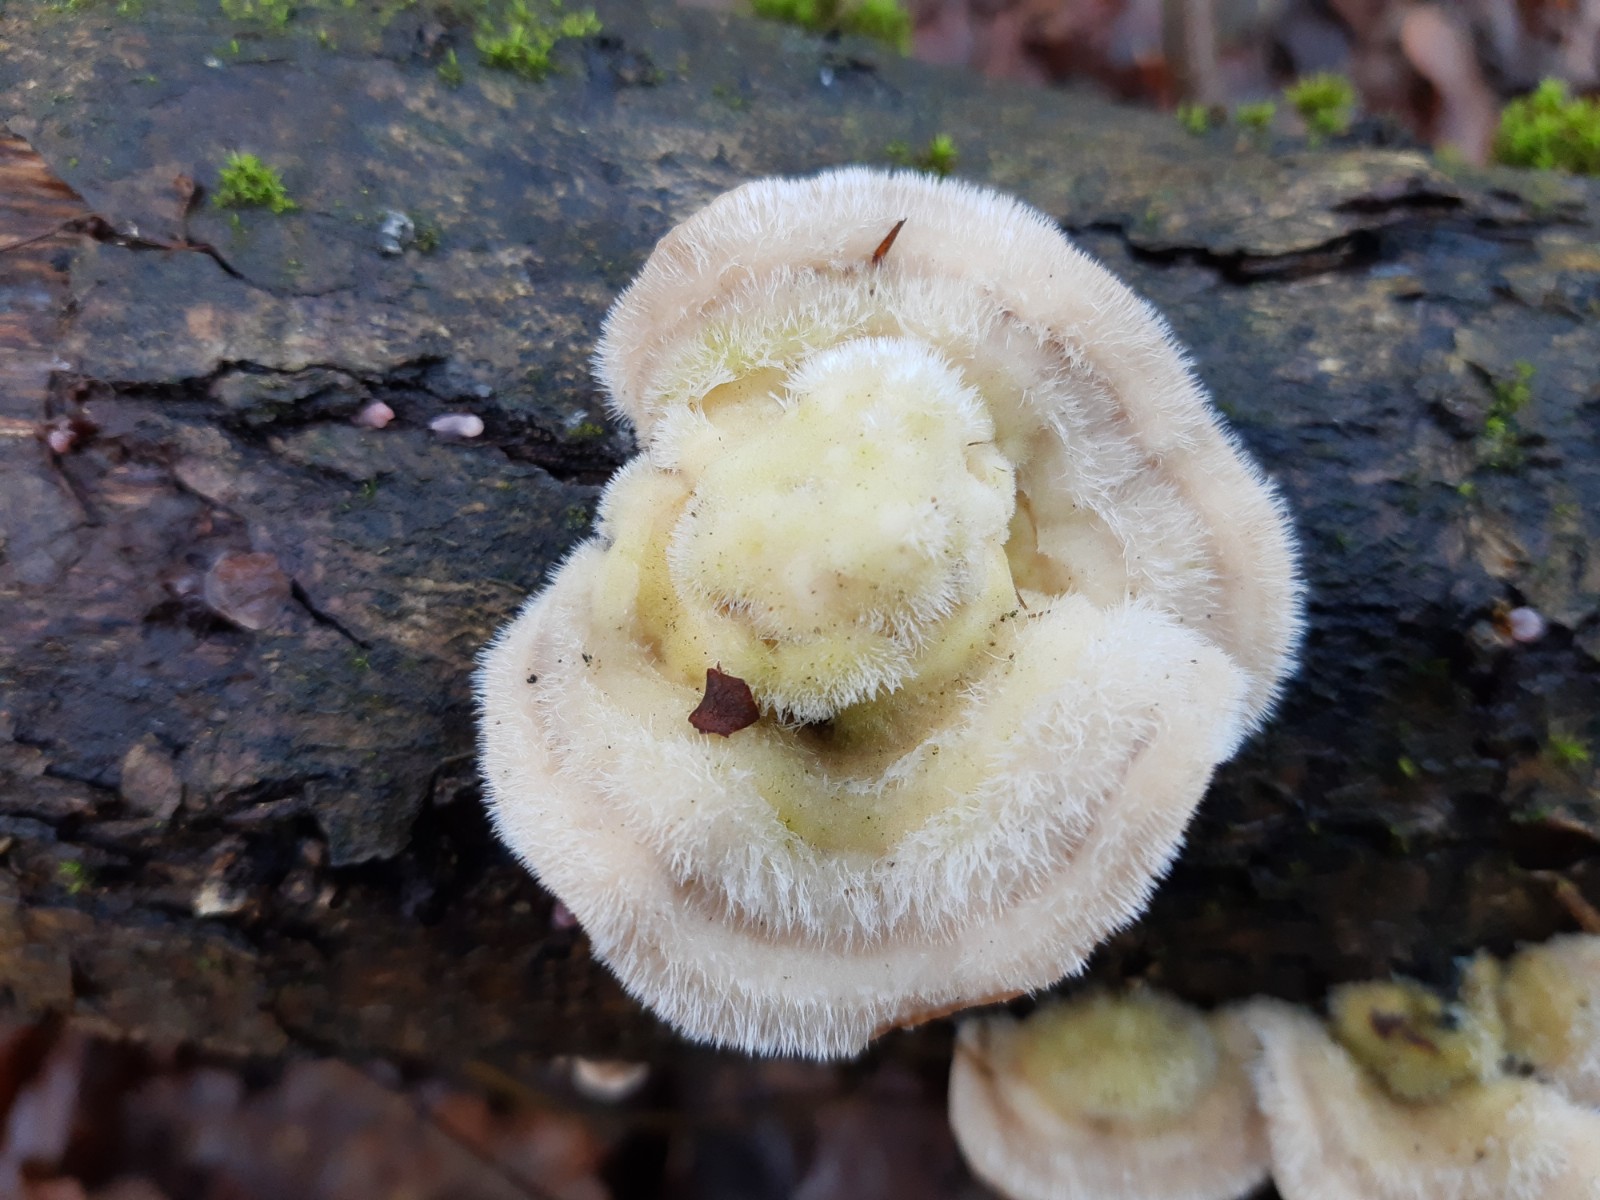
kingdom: Fungi
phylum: Basidiomycota
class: Agaricomycetes
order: Polyporales
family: Polyporaceae
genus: Trametes
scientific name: Trametes hirsuta
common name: håret læderporesvamp
